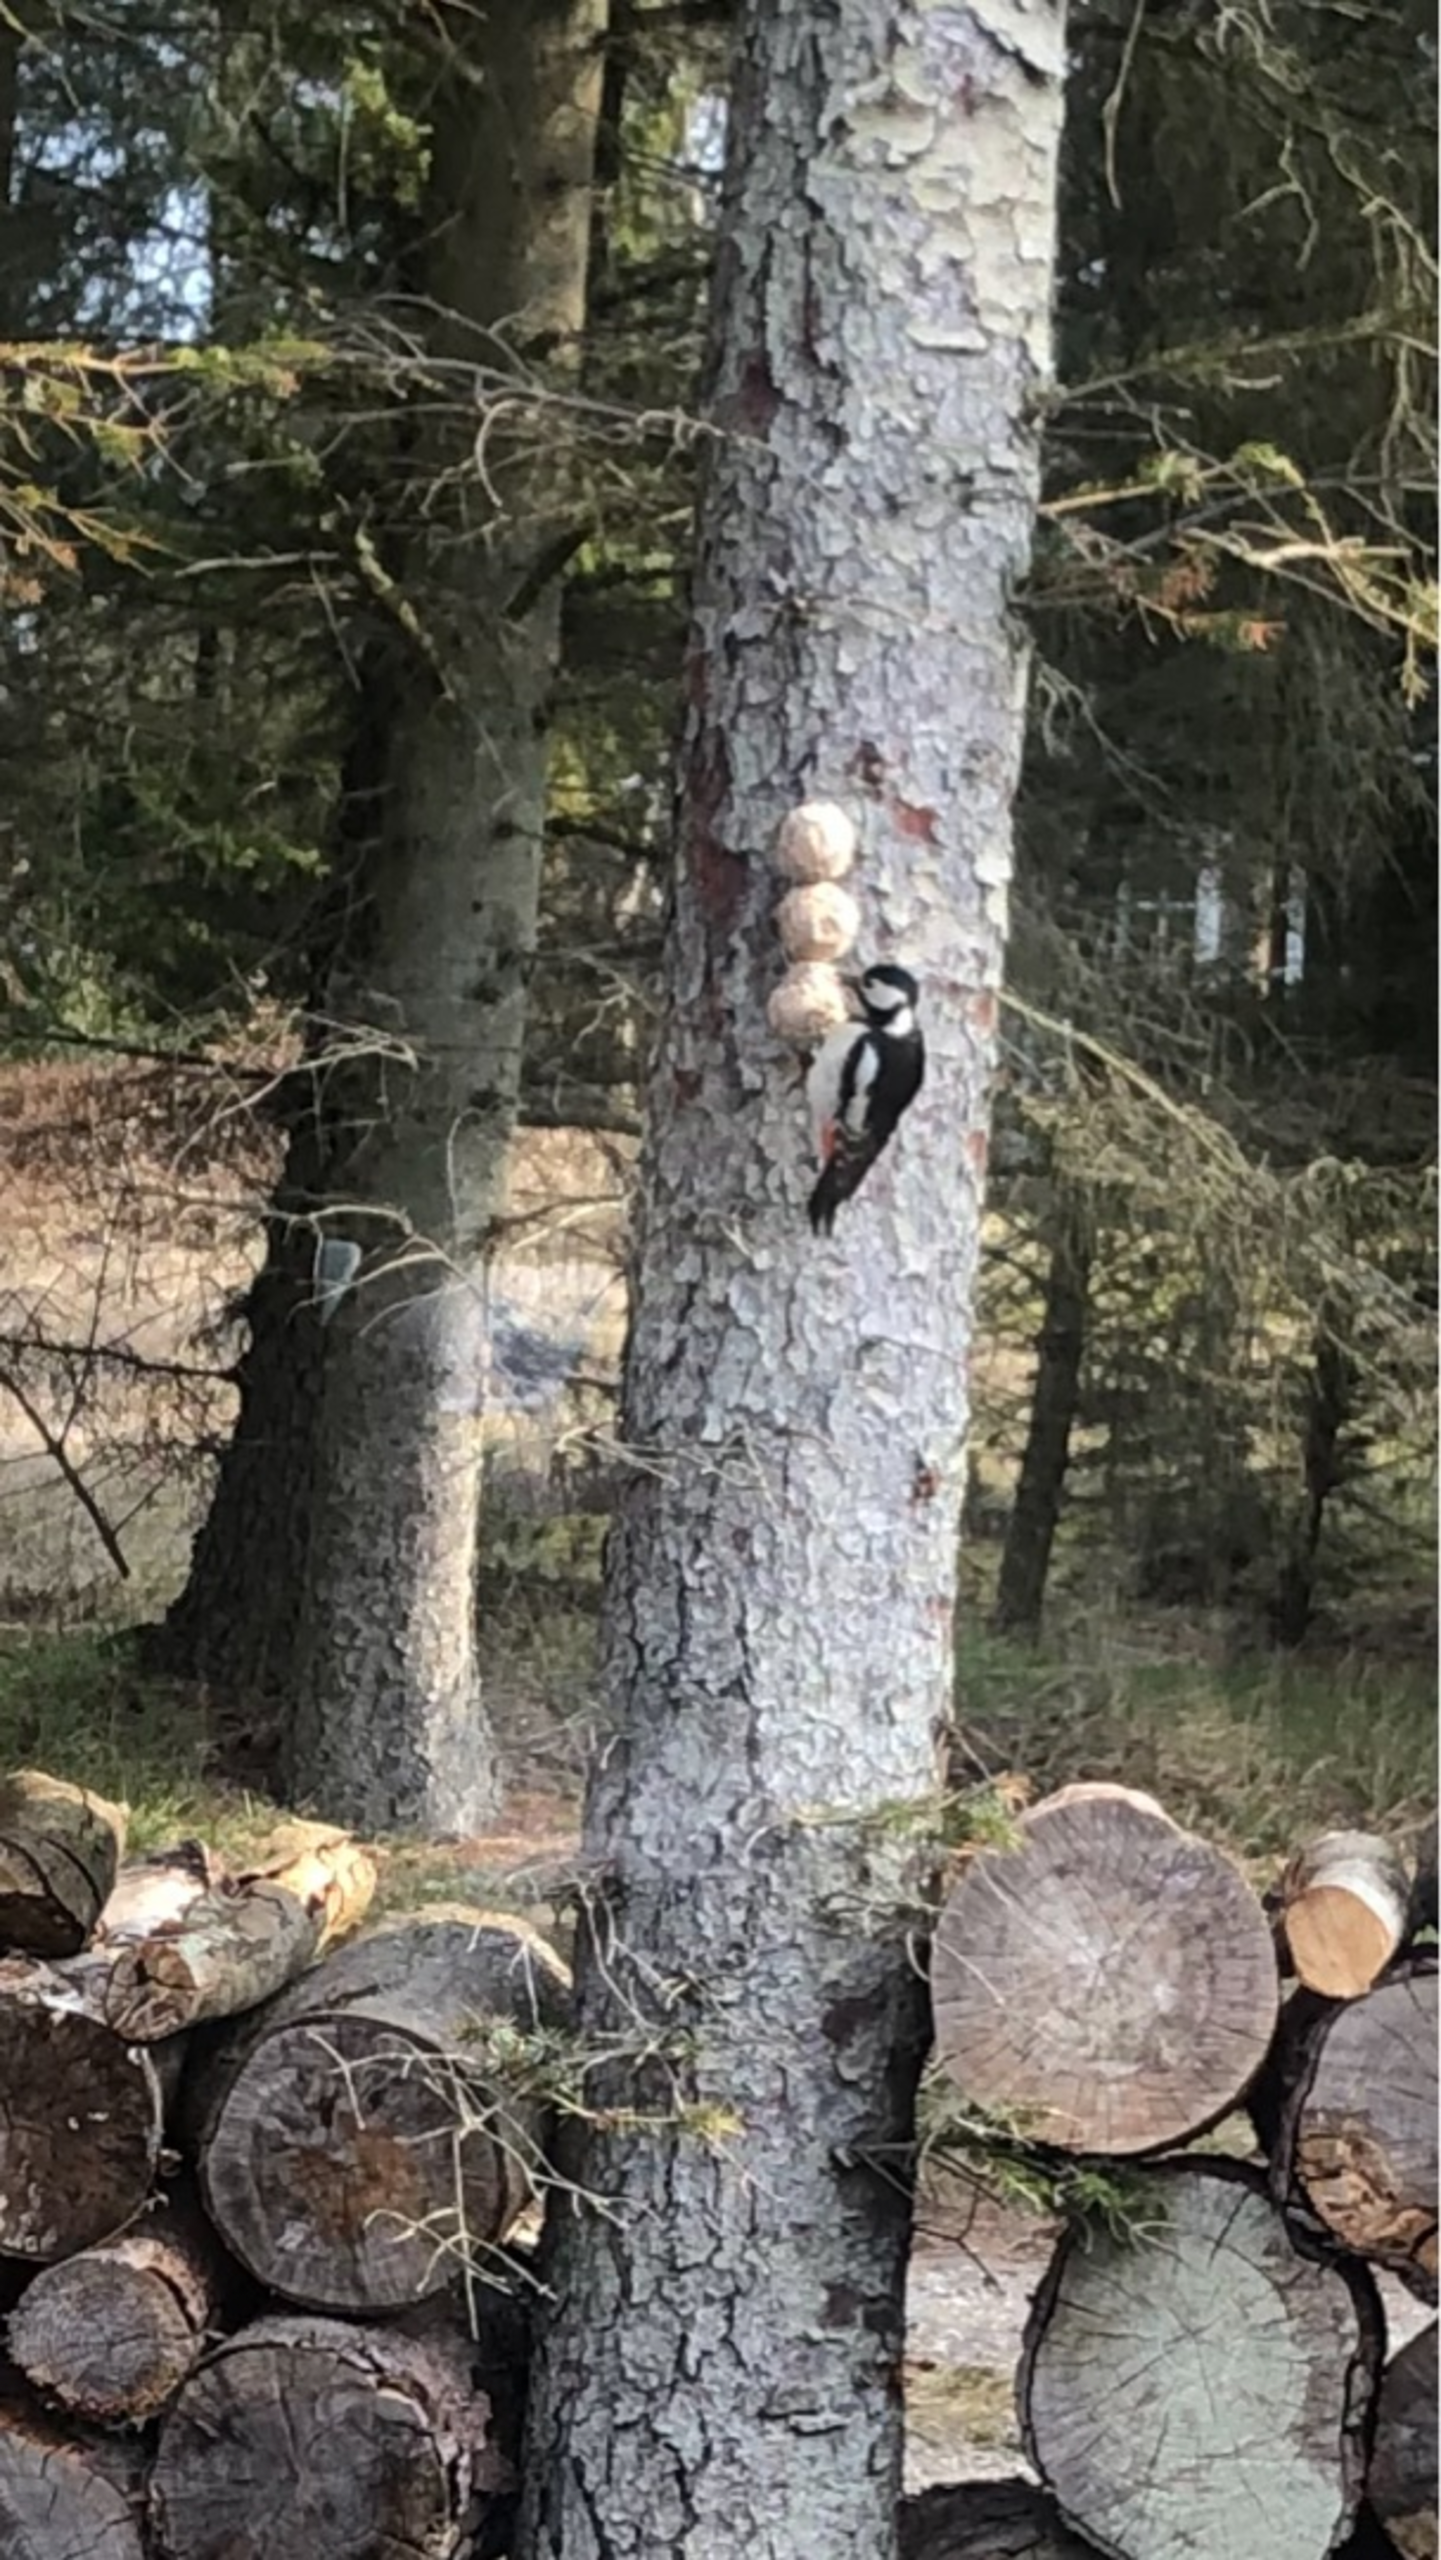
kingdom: Animalia
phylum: Chordata
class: Aves
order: Piciformes
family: Picidae
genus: Dendrocopos
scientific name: Dendrocopos major
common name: Stor flagspætte
